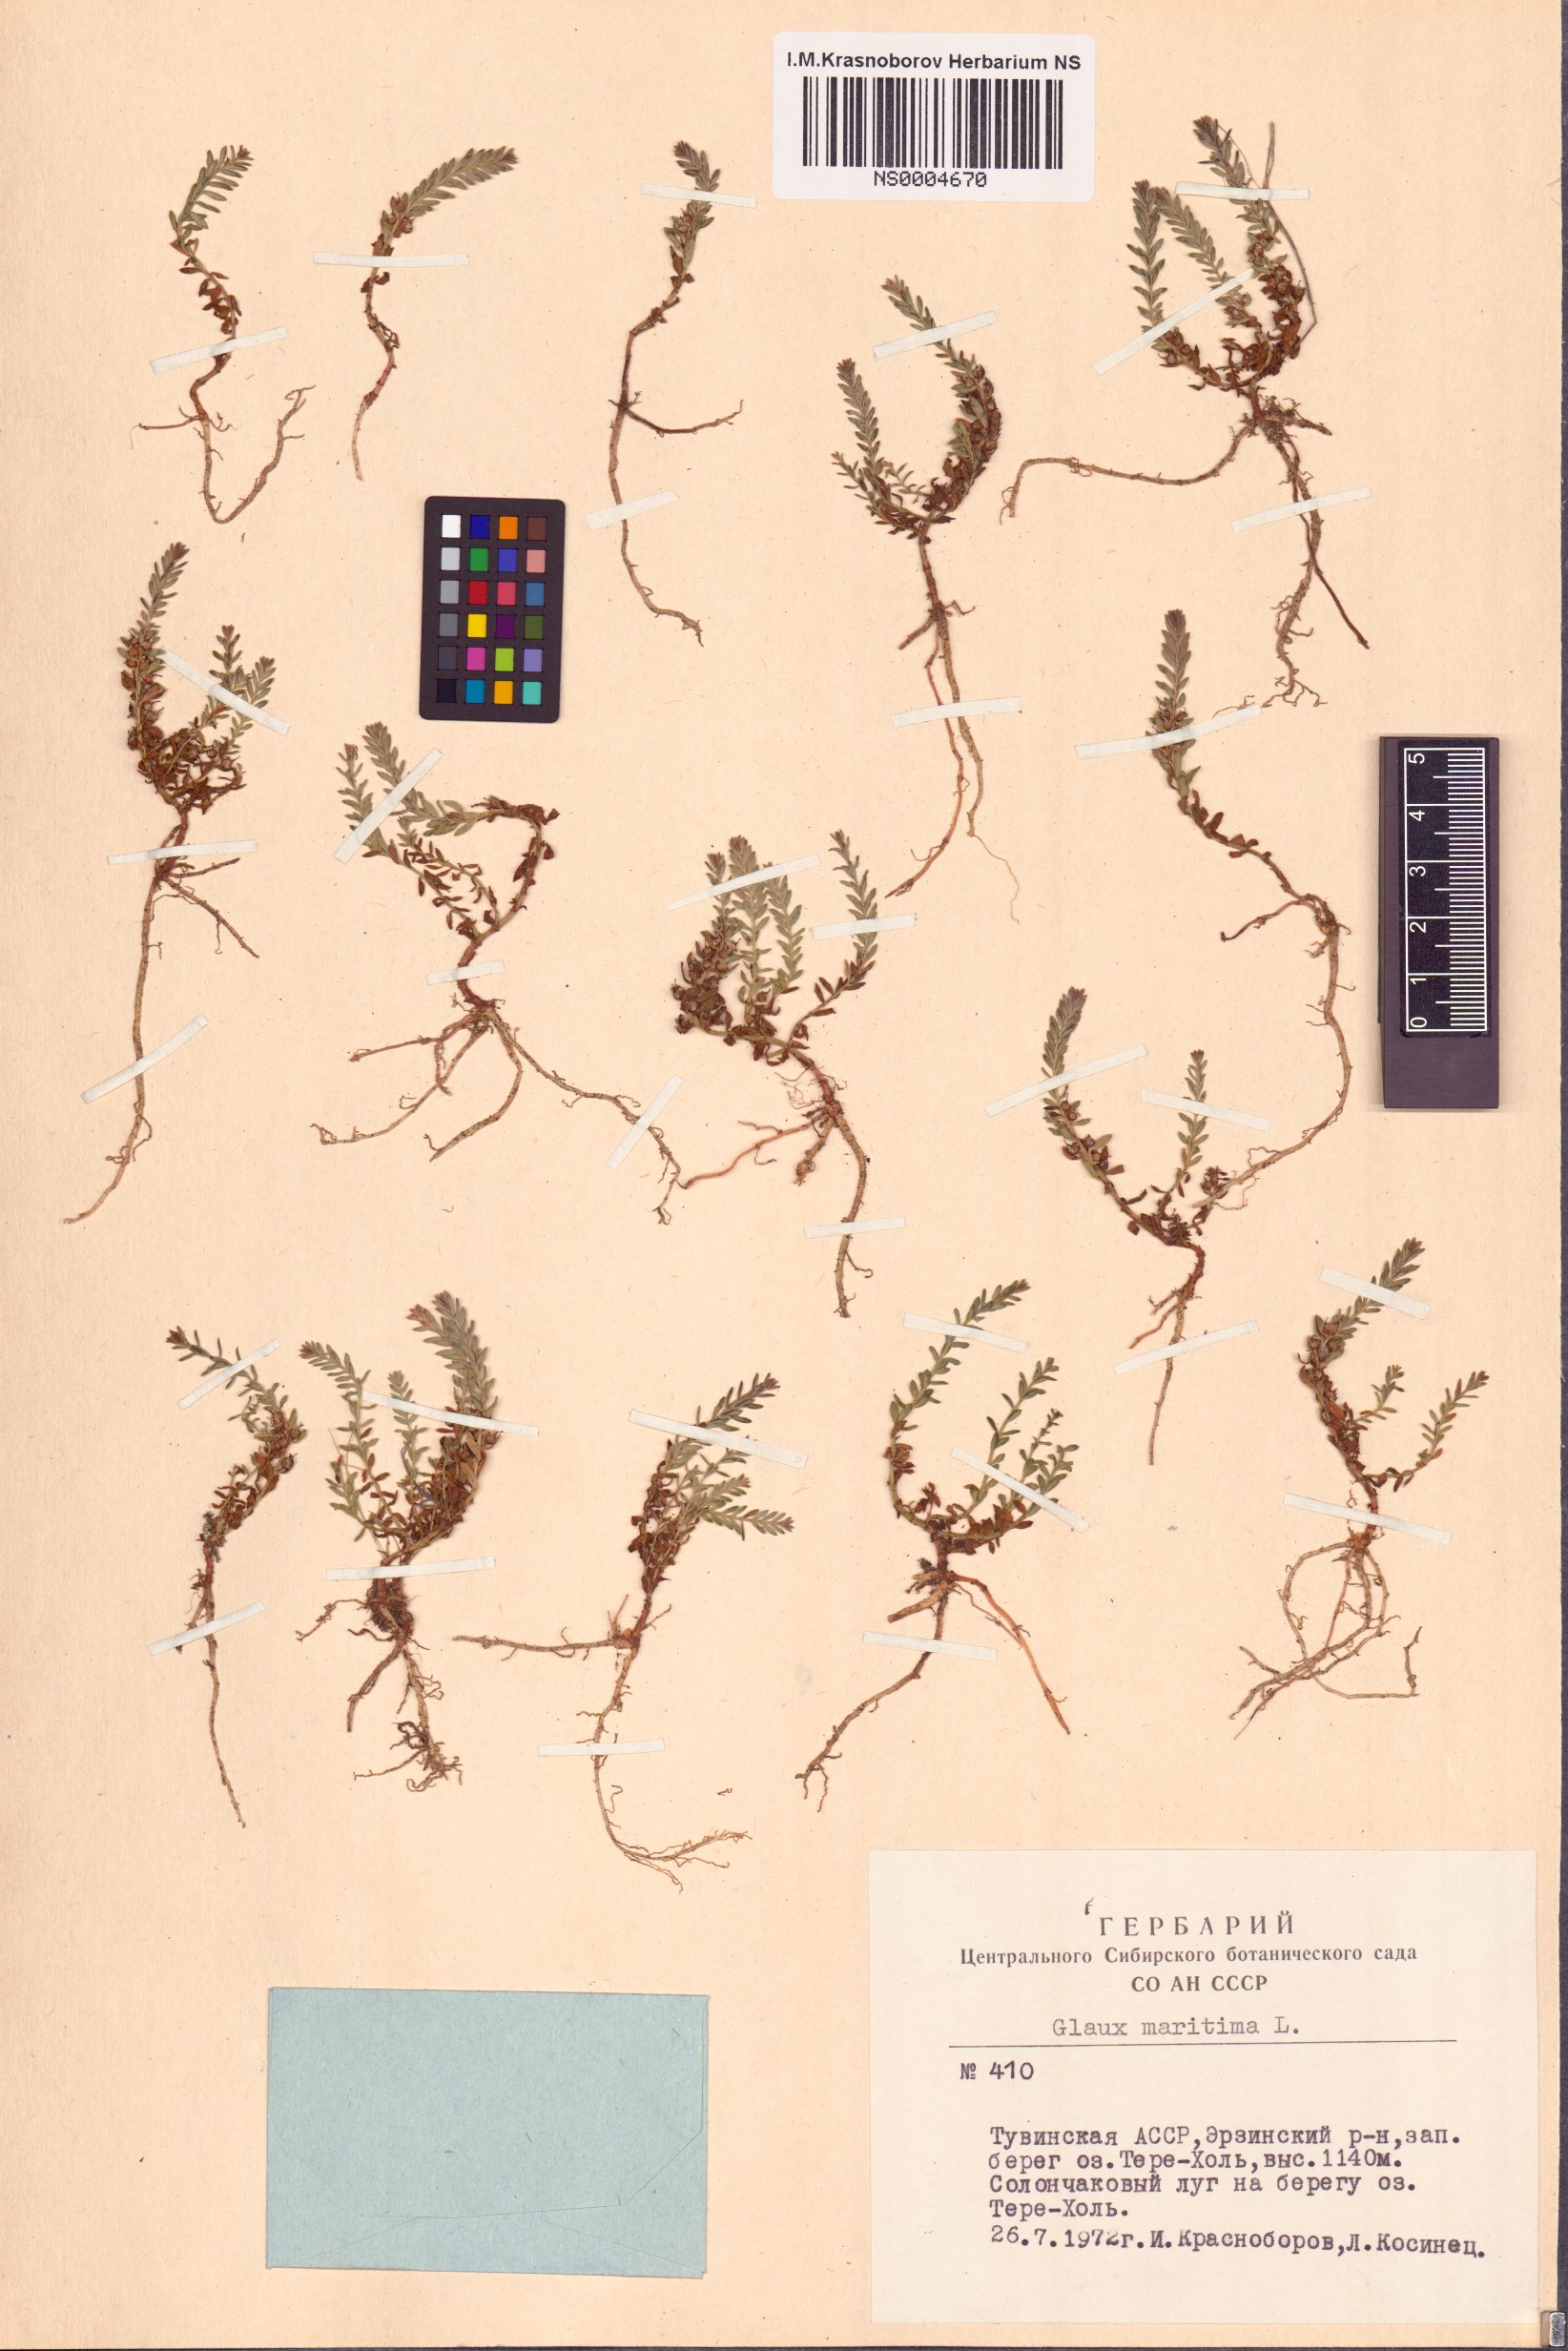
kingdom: Plantae
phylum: Tracheophyta
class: Magnoliopsida
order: Ericales
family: Primulaceae
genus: Lysimachia
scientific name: Lysimachia maritima
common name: Sea milkwort
